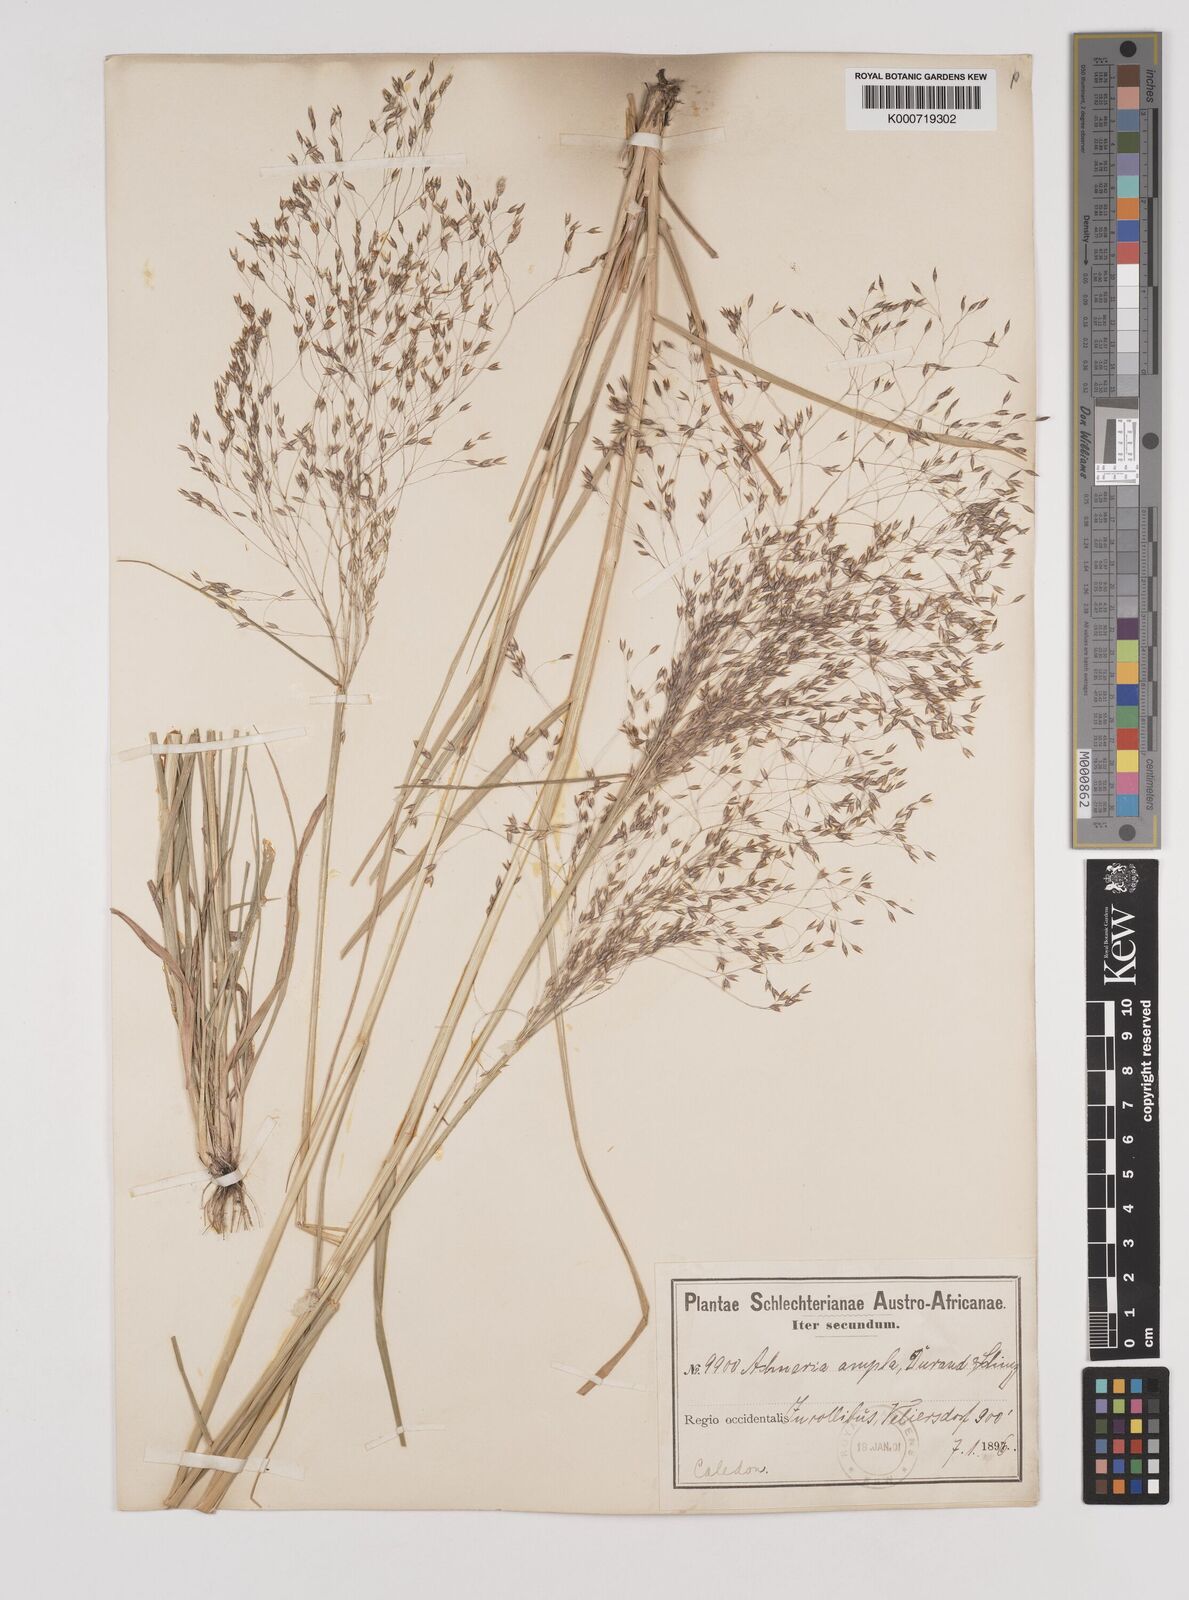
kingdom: Plantae
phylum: Tracheophyta
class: Liliopsida
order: Poales
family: Poaceae
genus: Pentameris
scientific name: Pentameris ampla
